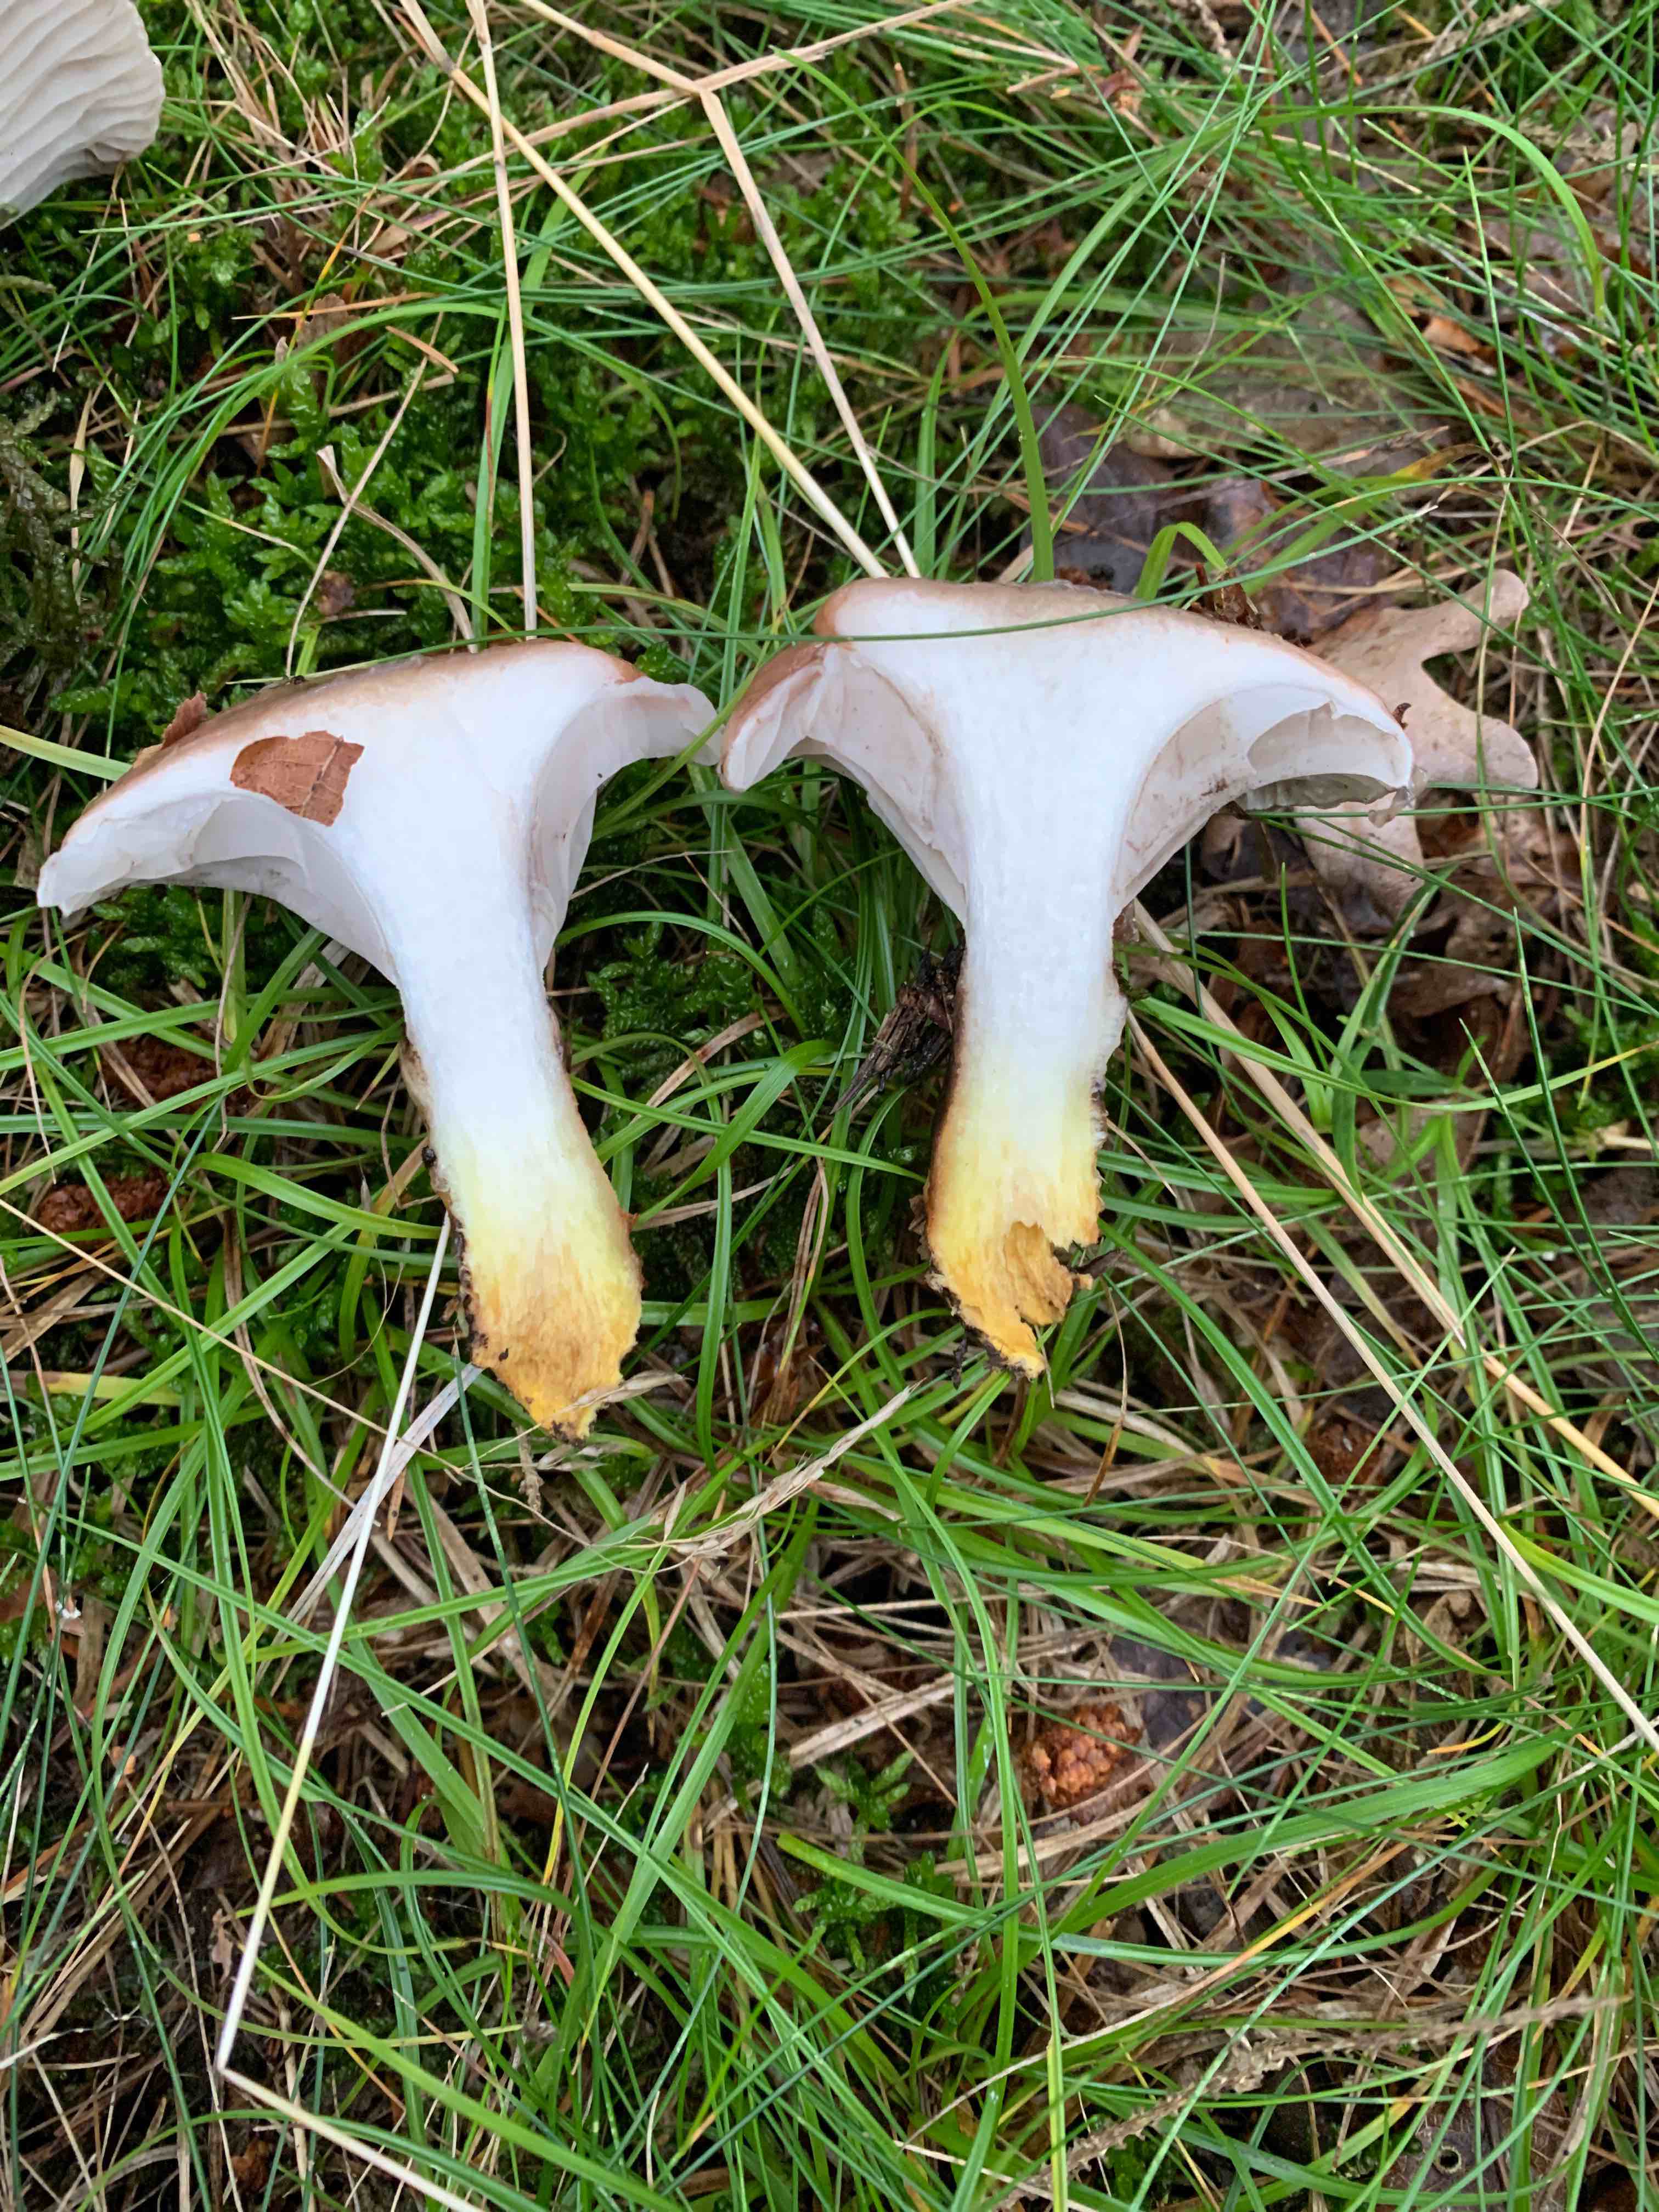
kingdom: Fungi
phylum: Basidiomycota
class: Agaricomycetes
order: Boletales
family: Gomphidiaceae
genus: Gomphidius
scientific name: Gomphidius glutinosus
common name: grå slimslør
